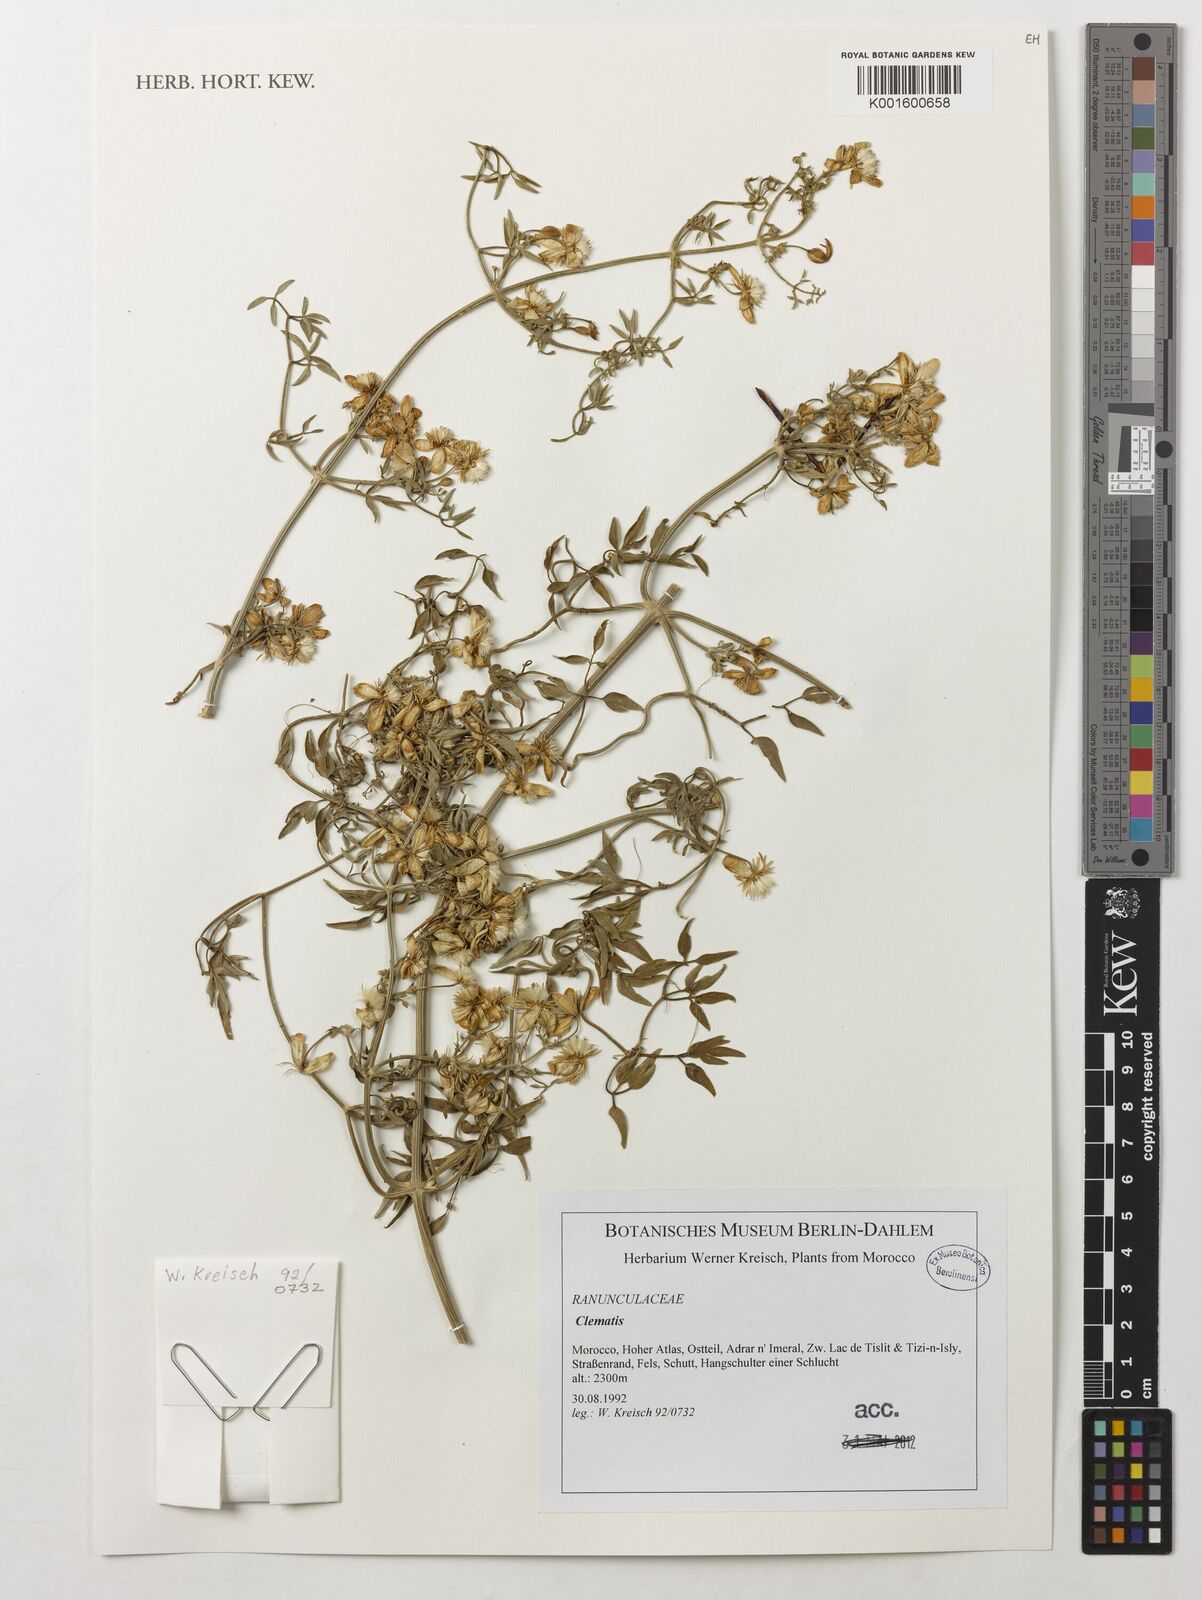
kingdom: Plantae
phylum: Tracheophyta
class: Magnoliopsida
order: Ranunculales
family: Ranunculaceae
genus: Clematis
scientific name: Clematis
